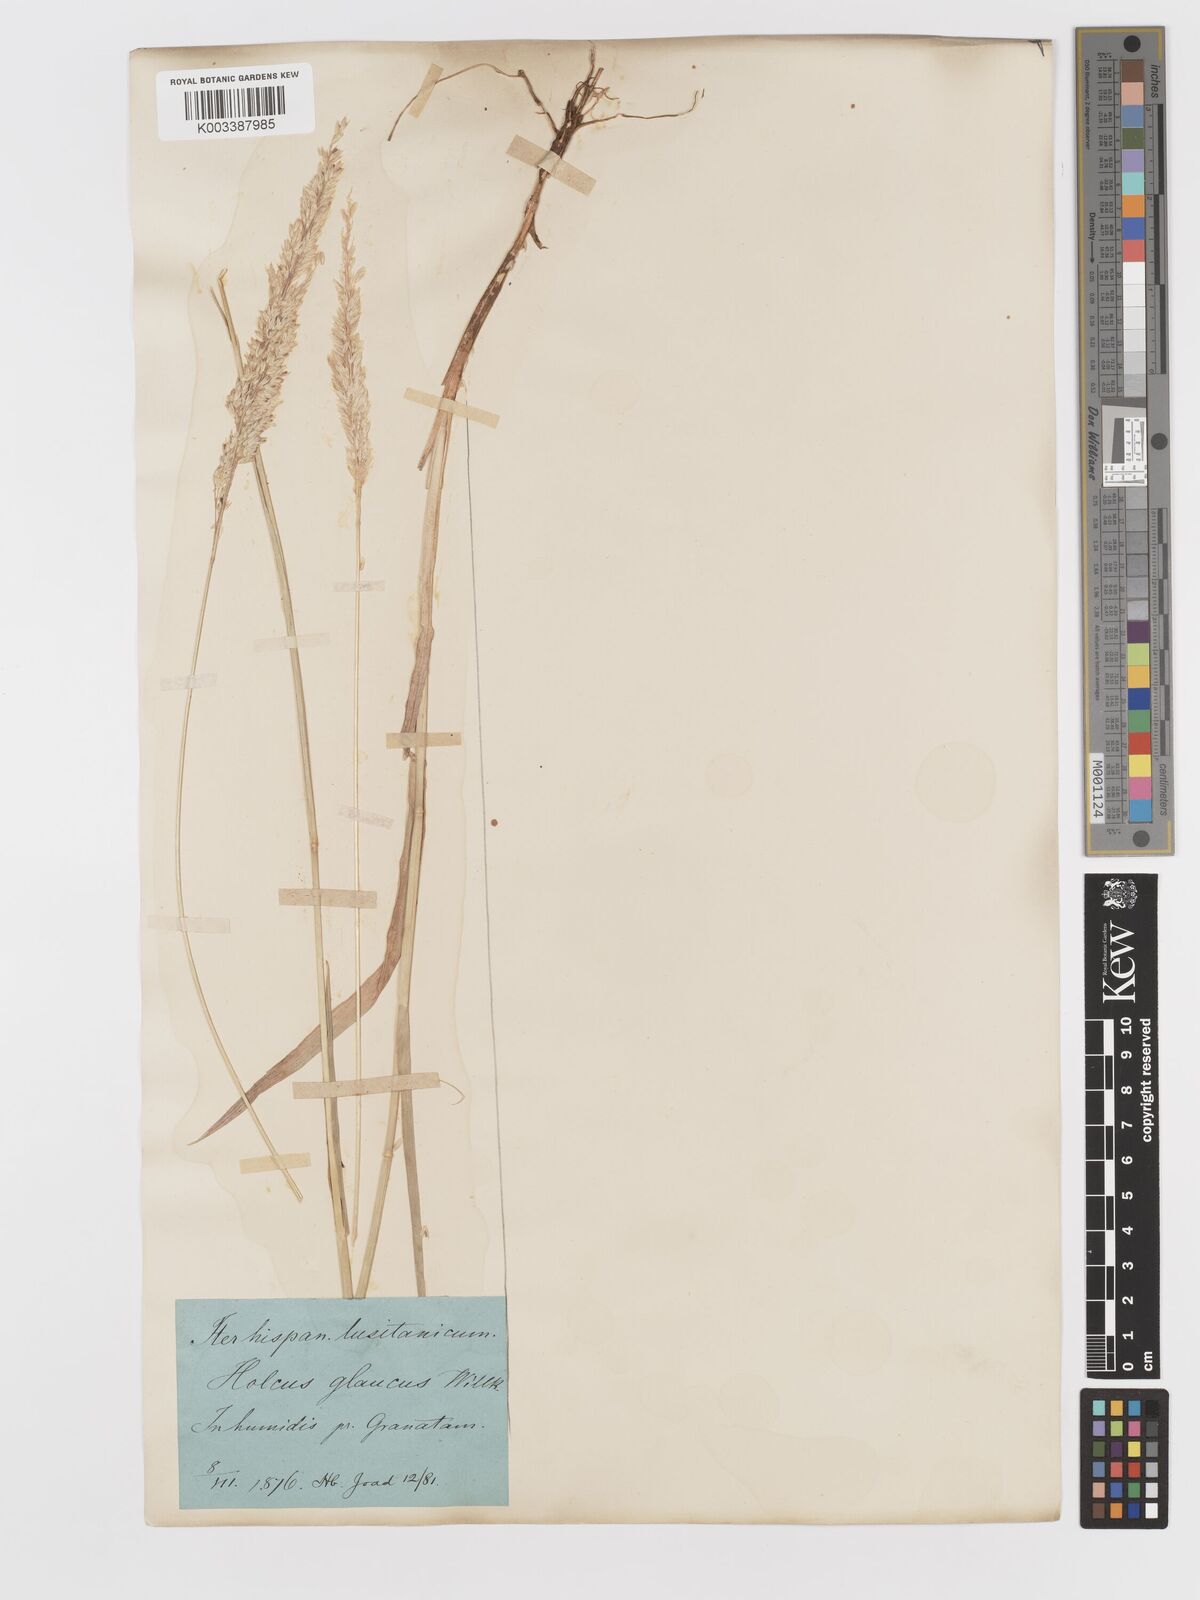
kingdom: Plantae
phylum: Tracheophyta
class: Liliopsida
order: Poales
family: Poaceae
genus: Holcus
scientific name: Holcus lanatus
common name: Yorkshire-fog
